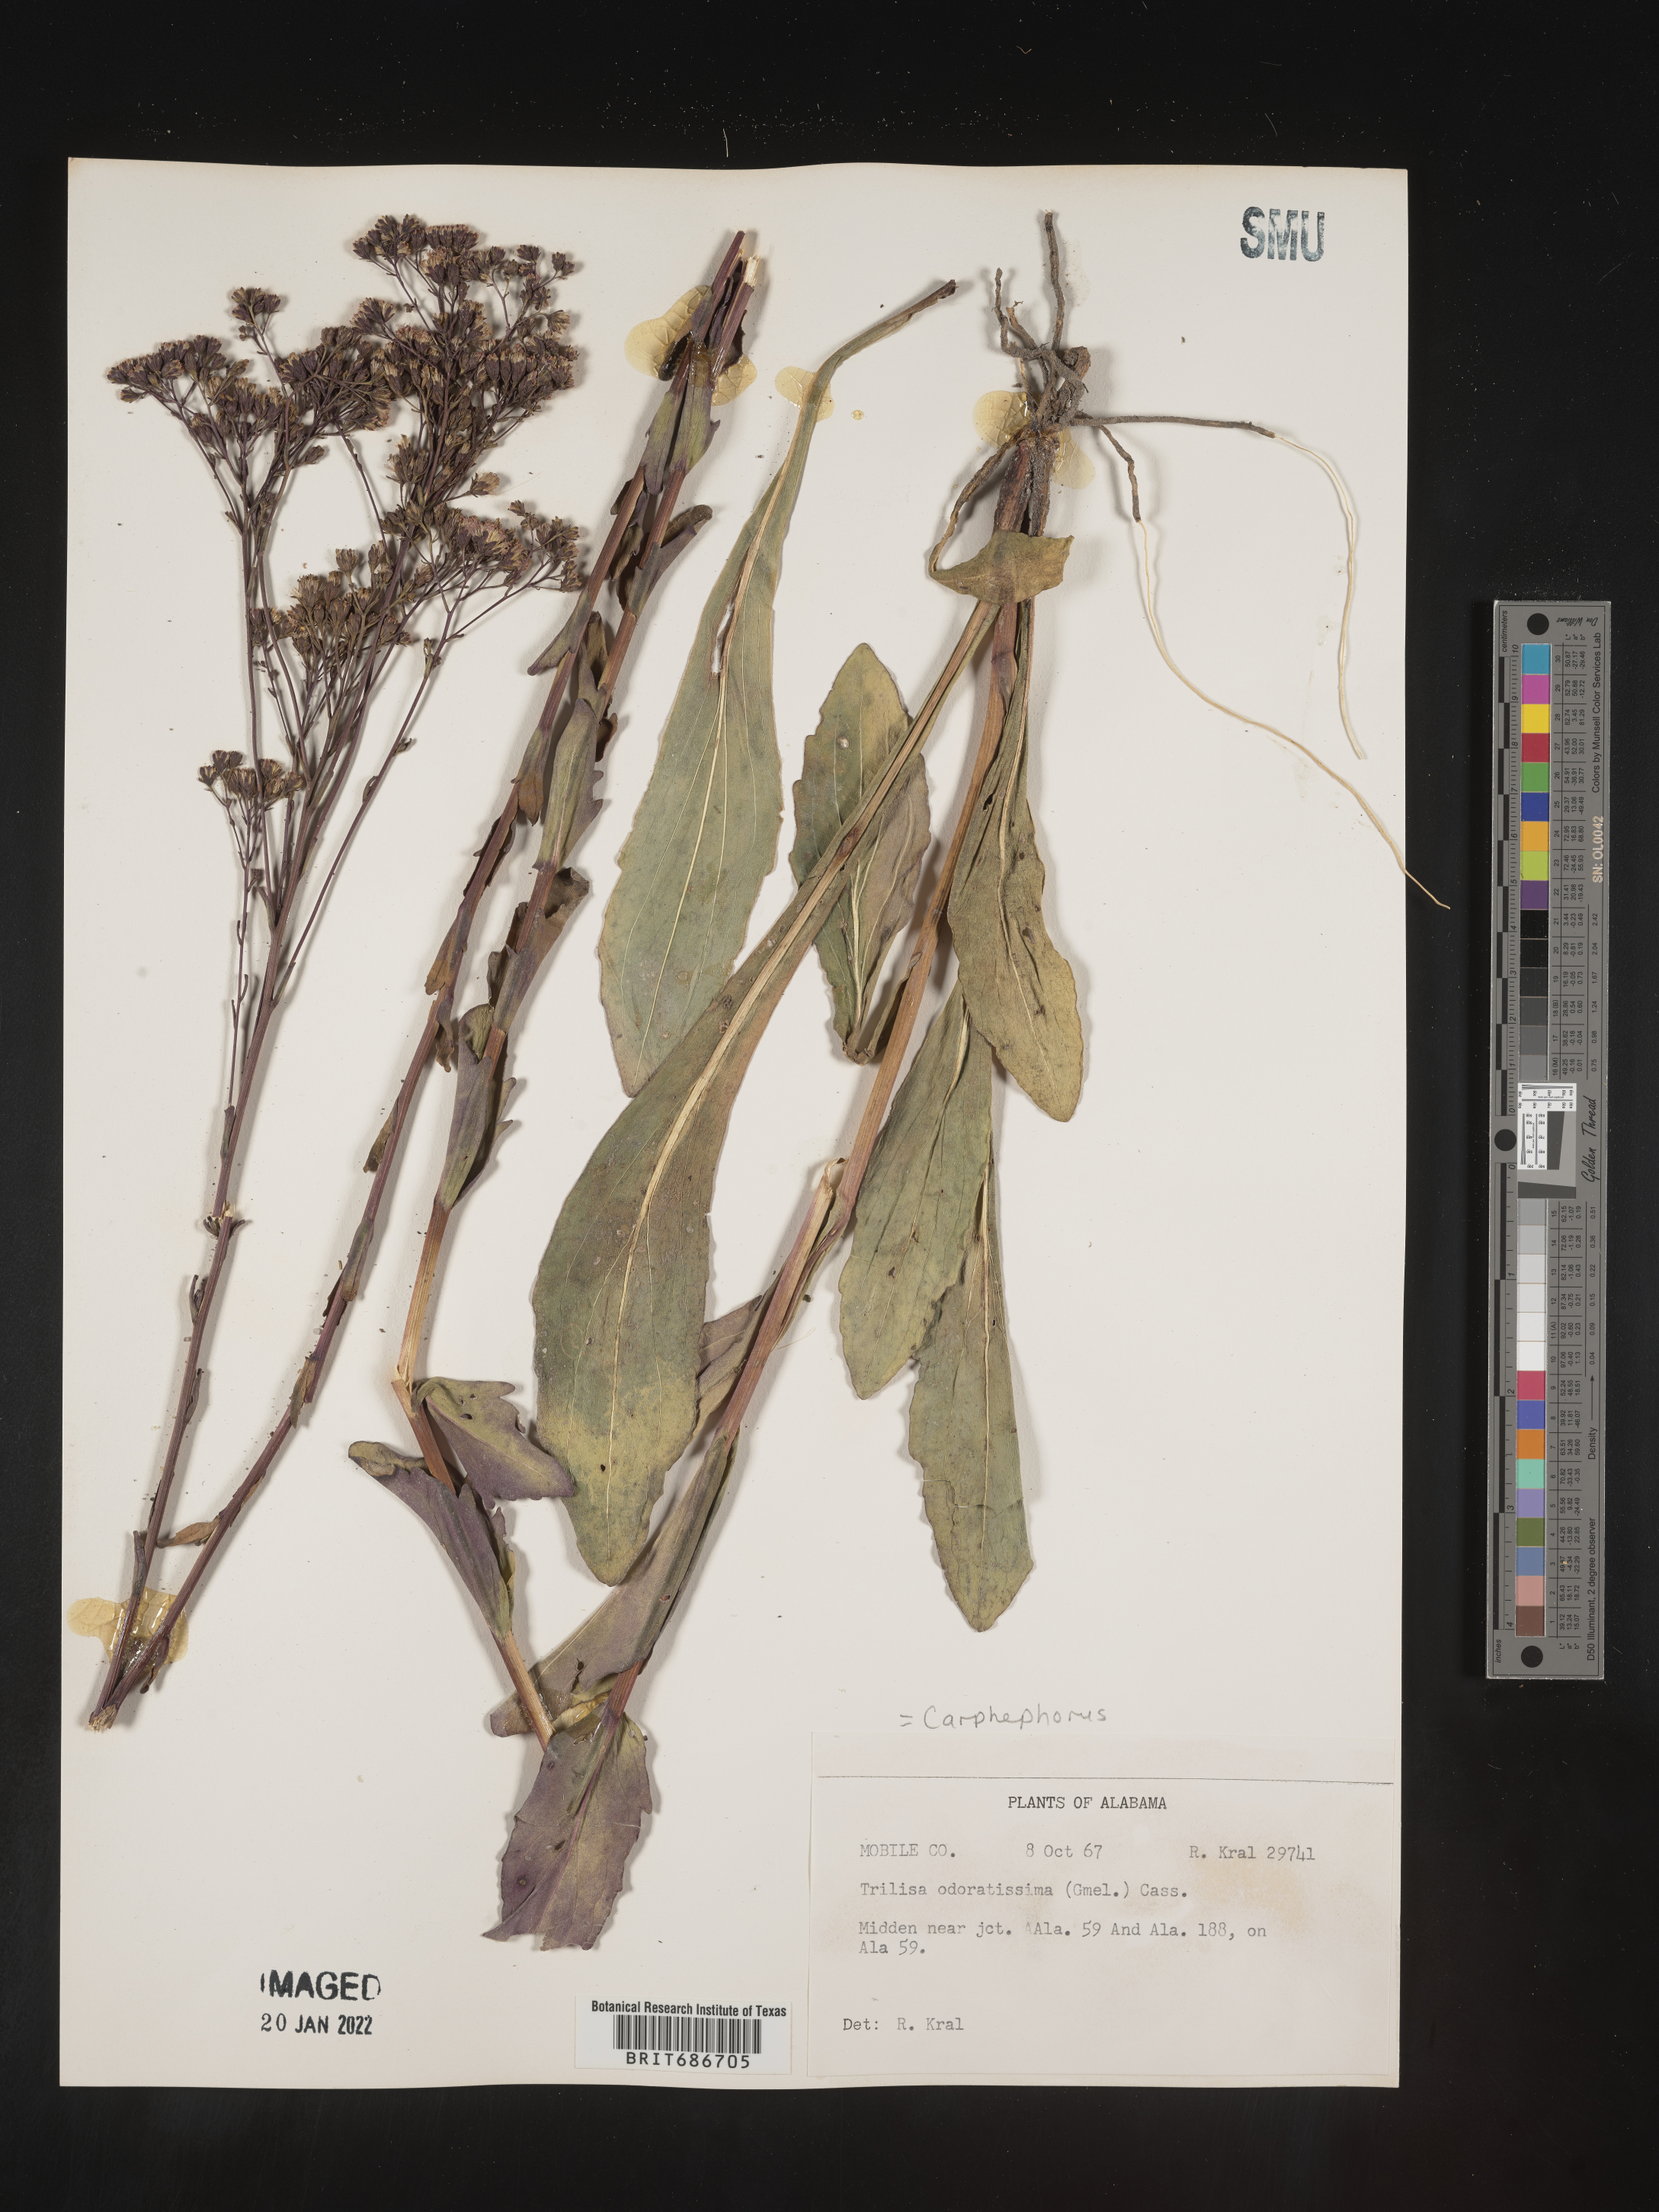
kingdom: Plantae
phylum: Tracheophyta
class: Magnoliopsida
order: Asterales
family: Asteraceae
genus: Carphephorus
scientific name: Carphephorus odoratissimus
